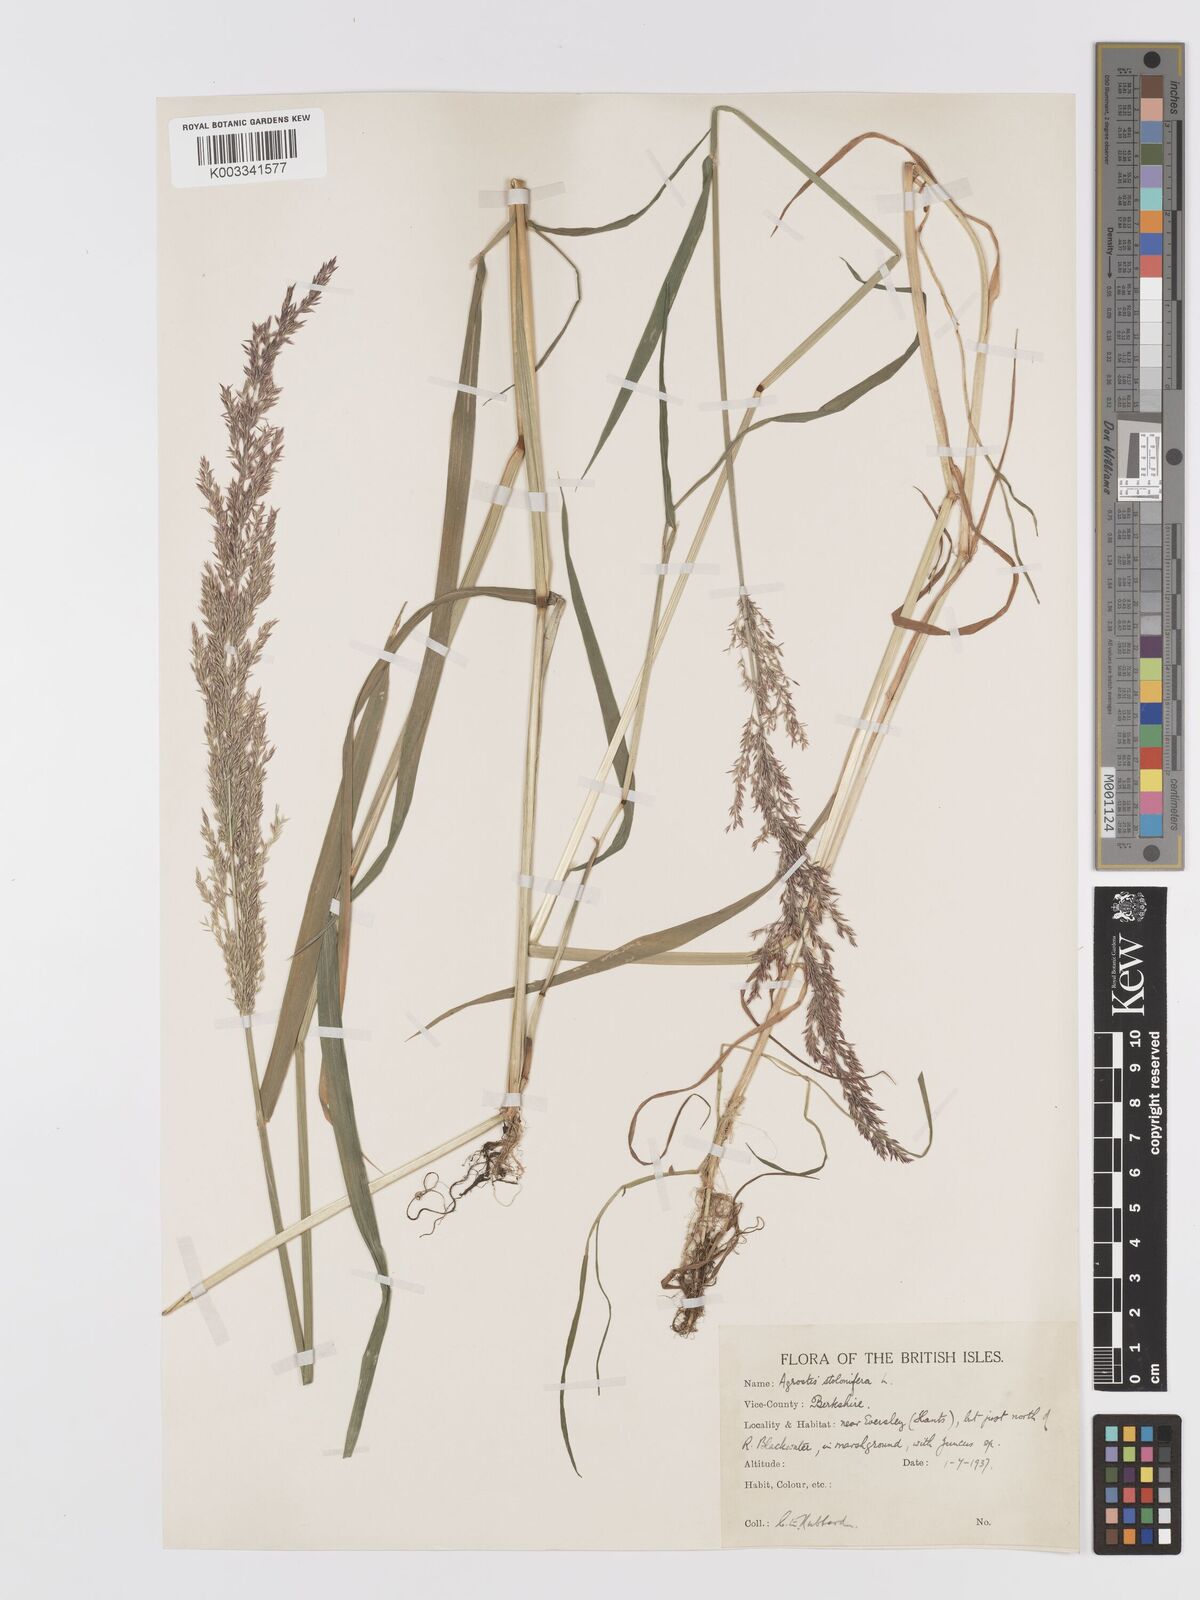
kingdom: Plantae
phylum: Tracheophyta
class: Liliopsida
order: Poales
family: Poaceae
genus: Agrostis
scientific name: Agrostis stolonifera
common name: Creeping bentgrass
